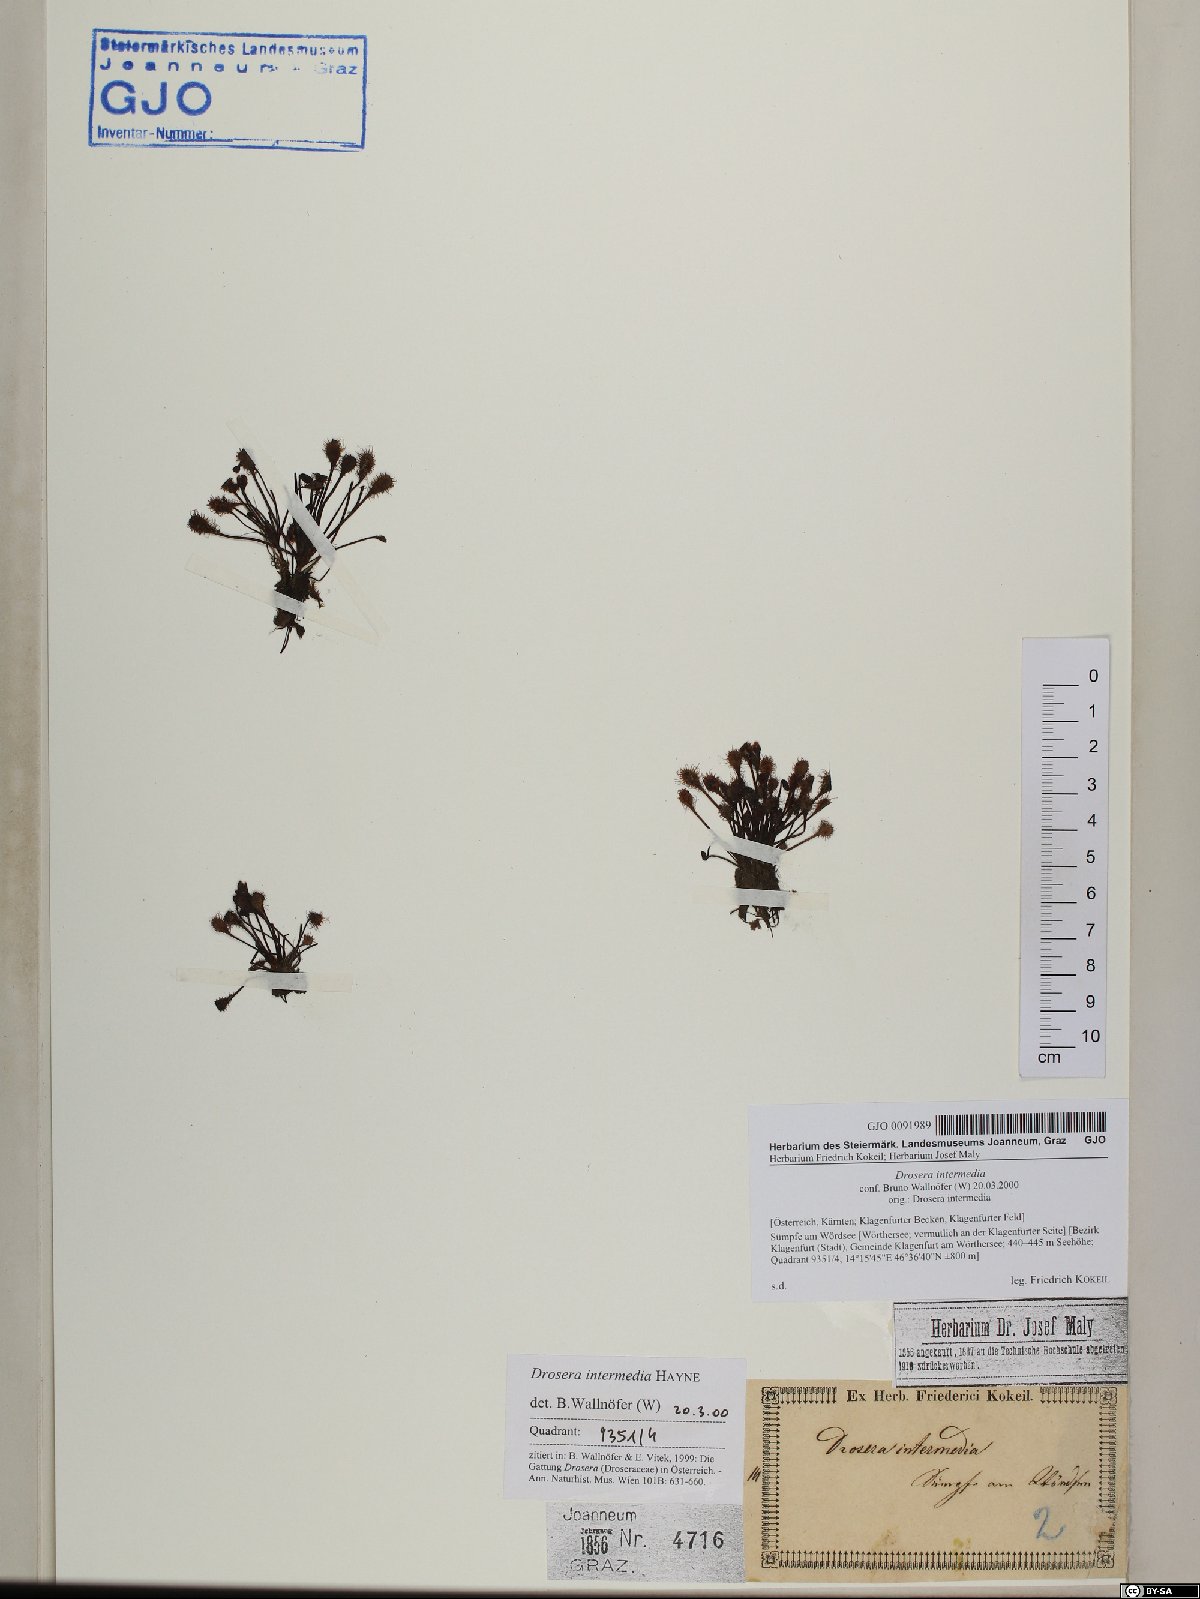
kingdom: Plantae
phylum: Tracheophyta
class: Magnoliopsida
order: Caryophyllales
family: Droseraceae
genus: Drosera
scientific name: Drosera intermedia
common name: Oblong-leaved sundew
